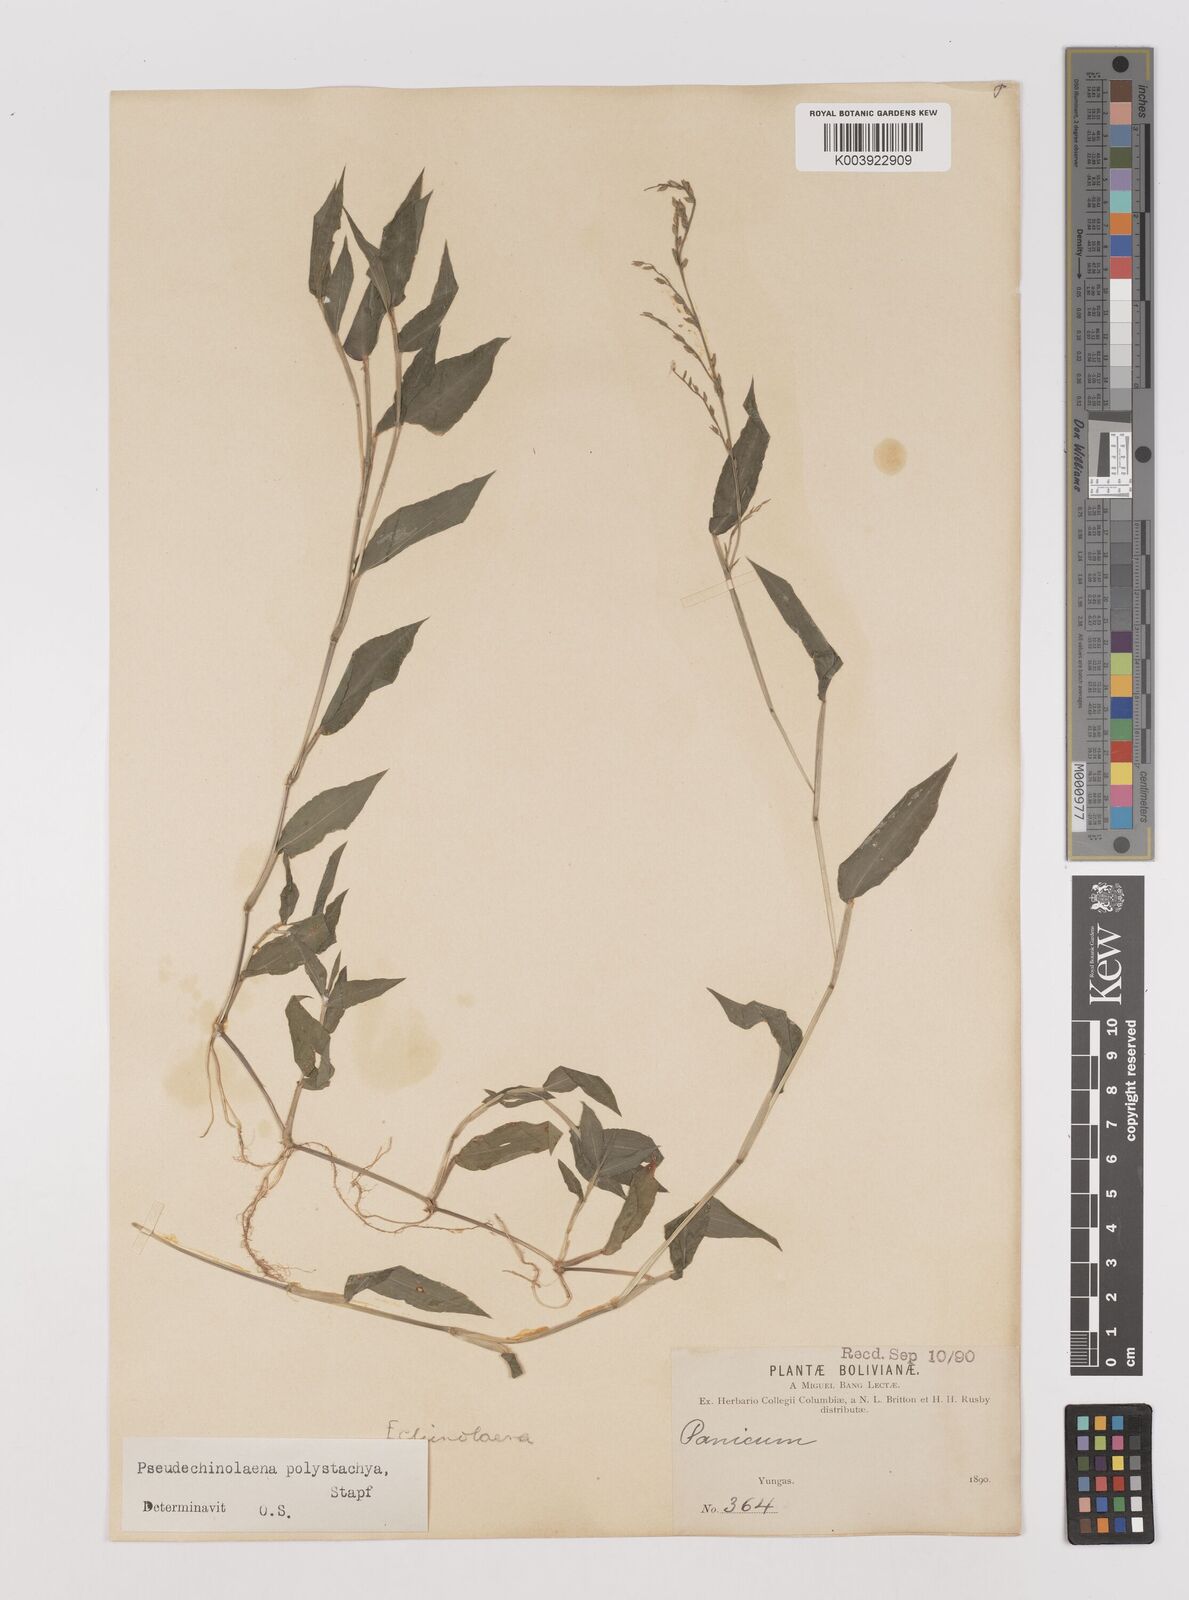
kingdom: Plantae
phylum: Tracheophyta
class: Liliopsida
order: Poales
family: Poaceae
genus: Pseudechinolaena
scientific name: Pseudechinolaena polystachya
